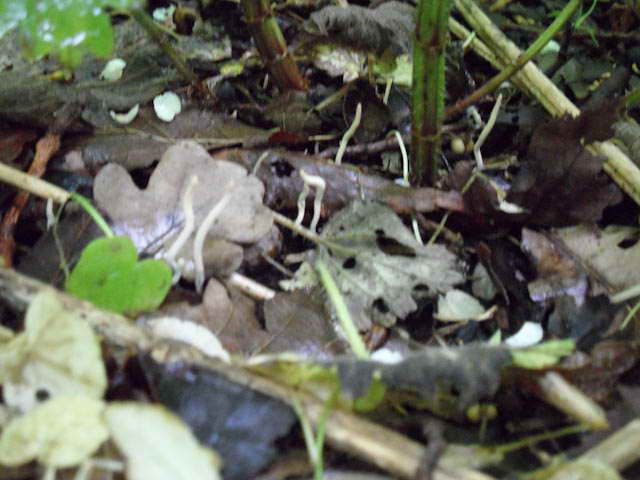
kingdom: Fungi
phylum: Ascomycota
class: Sordariomycetes
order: Xylariales
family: Xylariaceae
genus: Xylaria
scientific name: Xylaria oxyacanthae
